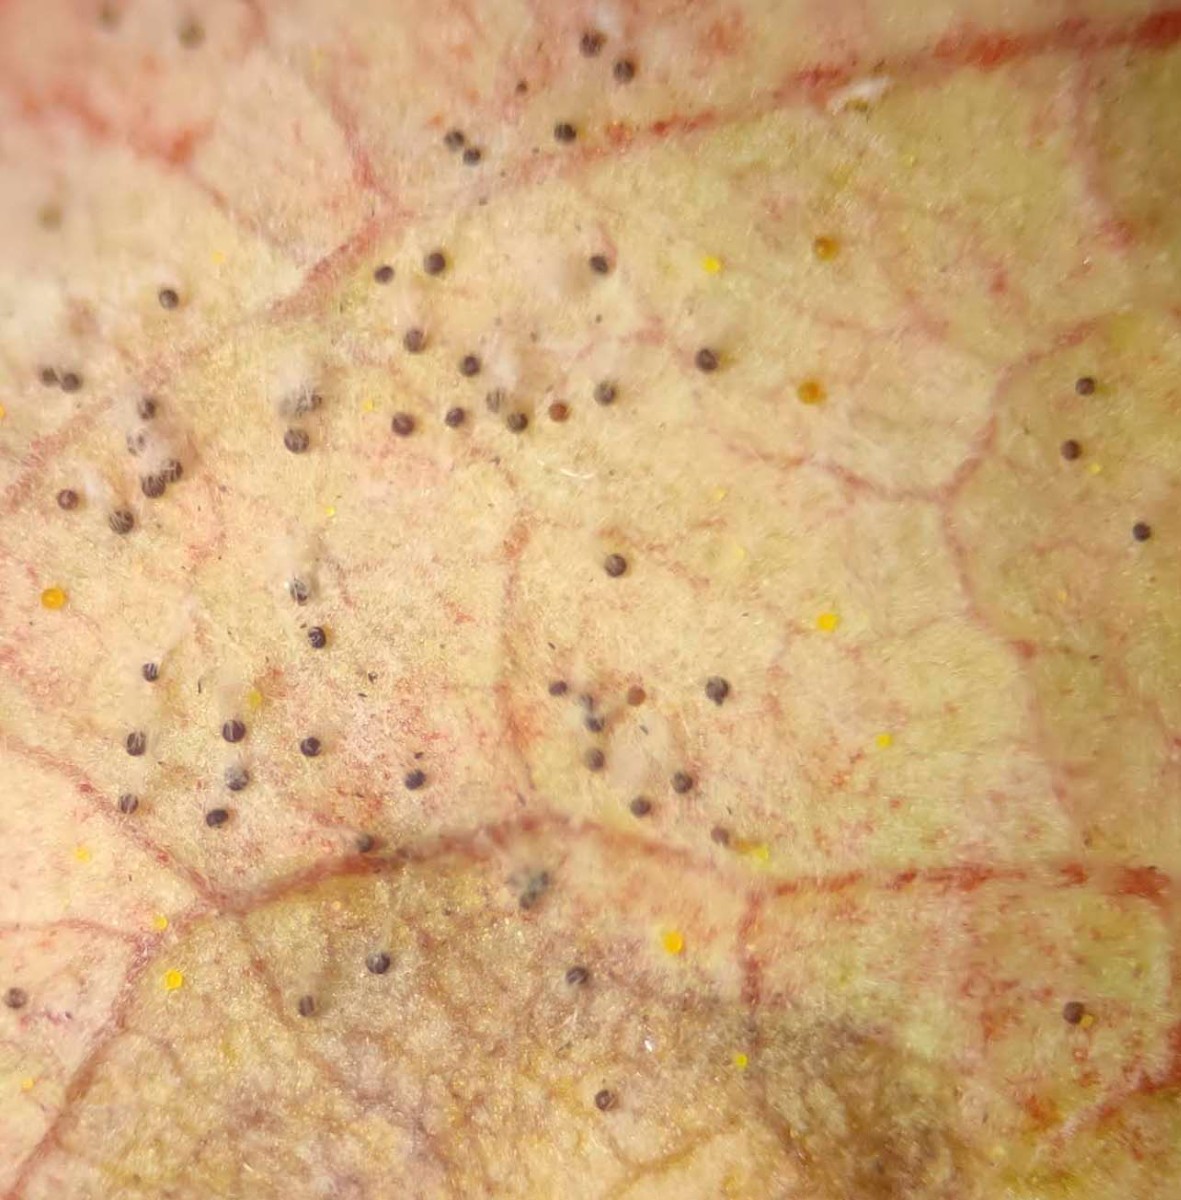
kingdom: Fungi
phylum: Ascomycota
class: Leotiomycetes
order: Helotiales
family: Erysiphaceae
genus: Erysiphe
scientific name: Erysiphe euonymi
